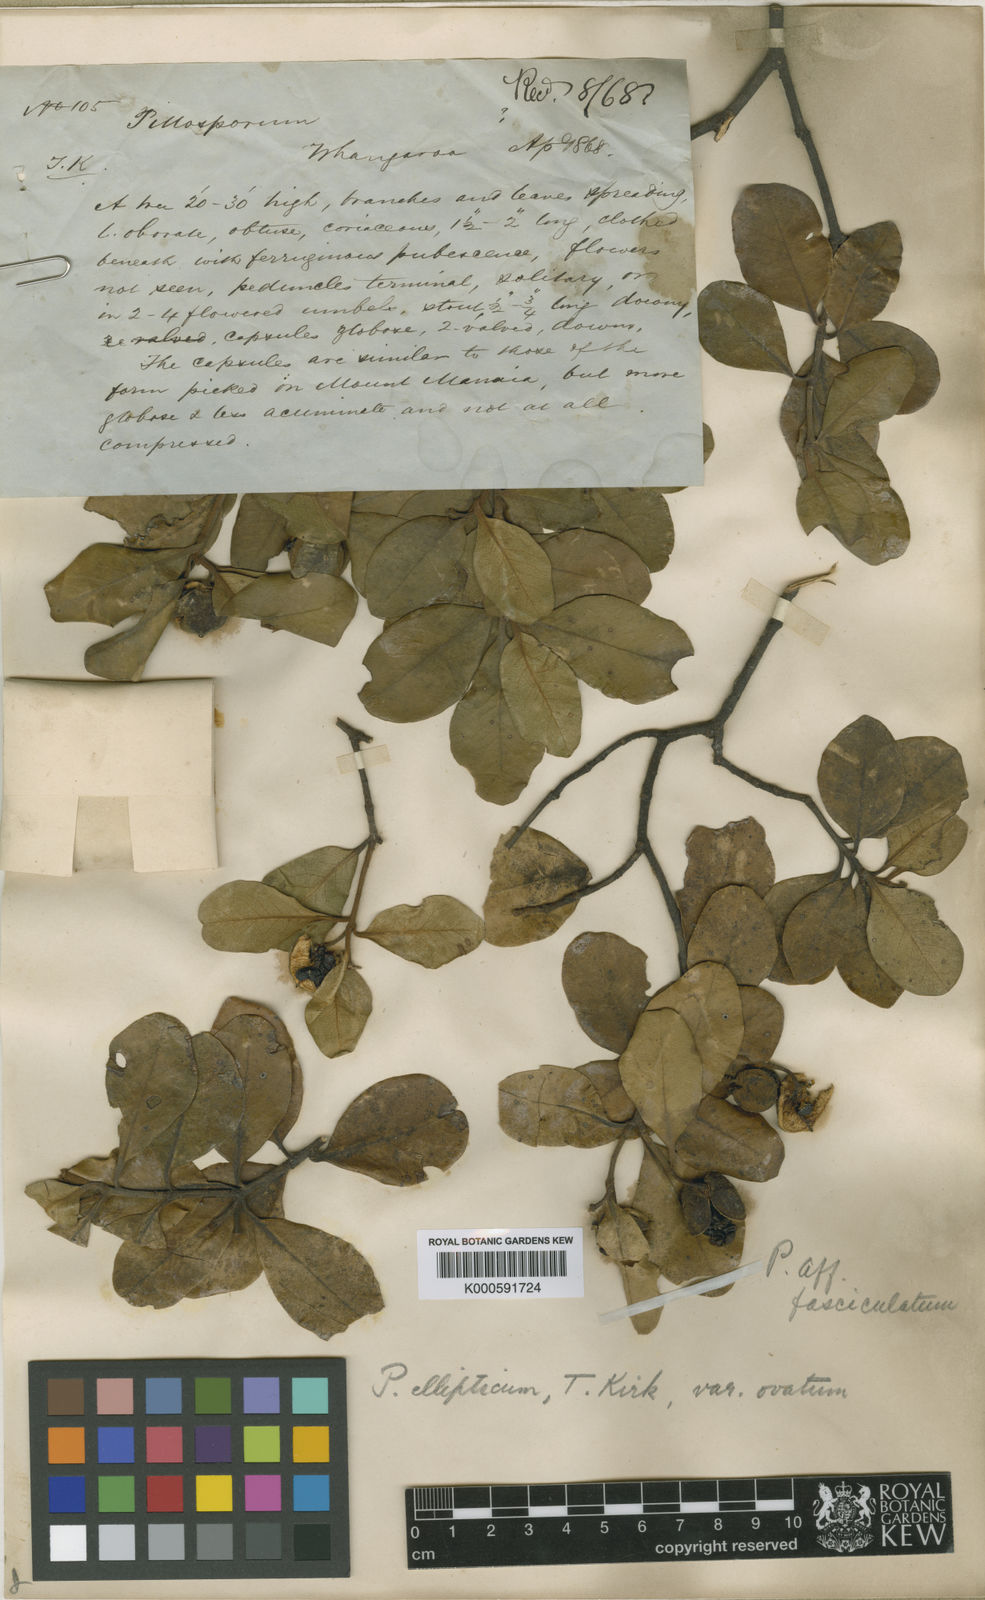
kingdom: Plantae
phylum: Tracheophyta
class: Magnoliopsida
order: Apiales
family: Pittosporaceae
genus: Pittosporum
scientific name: Pittosporum ellipticum
